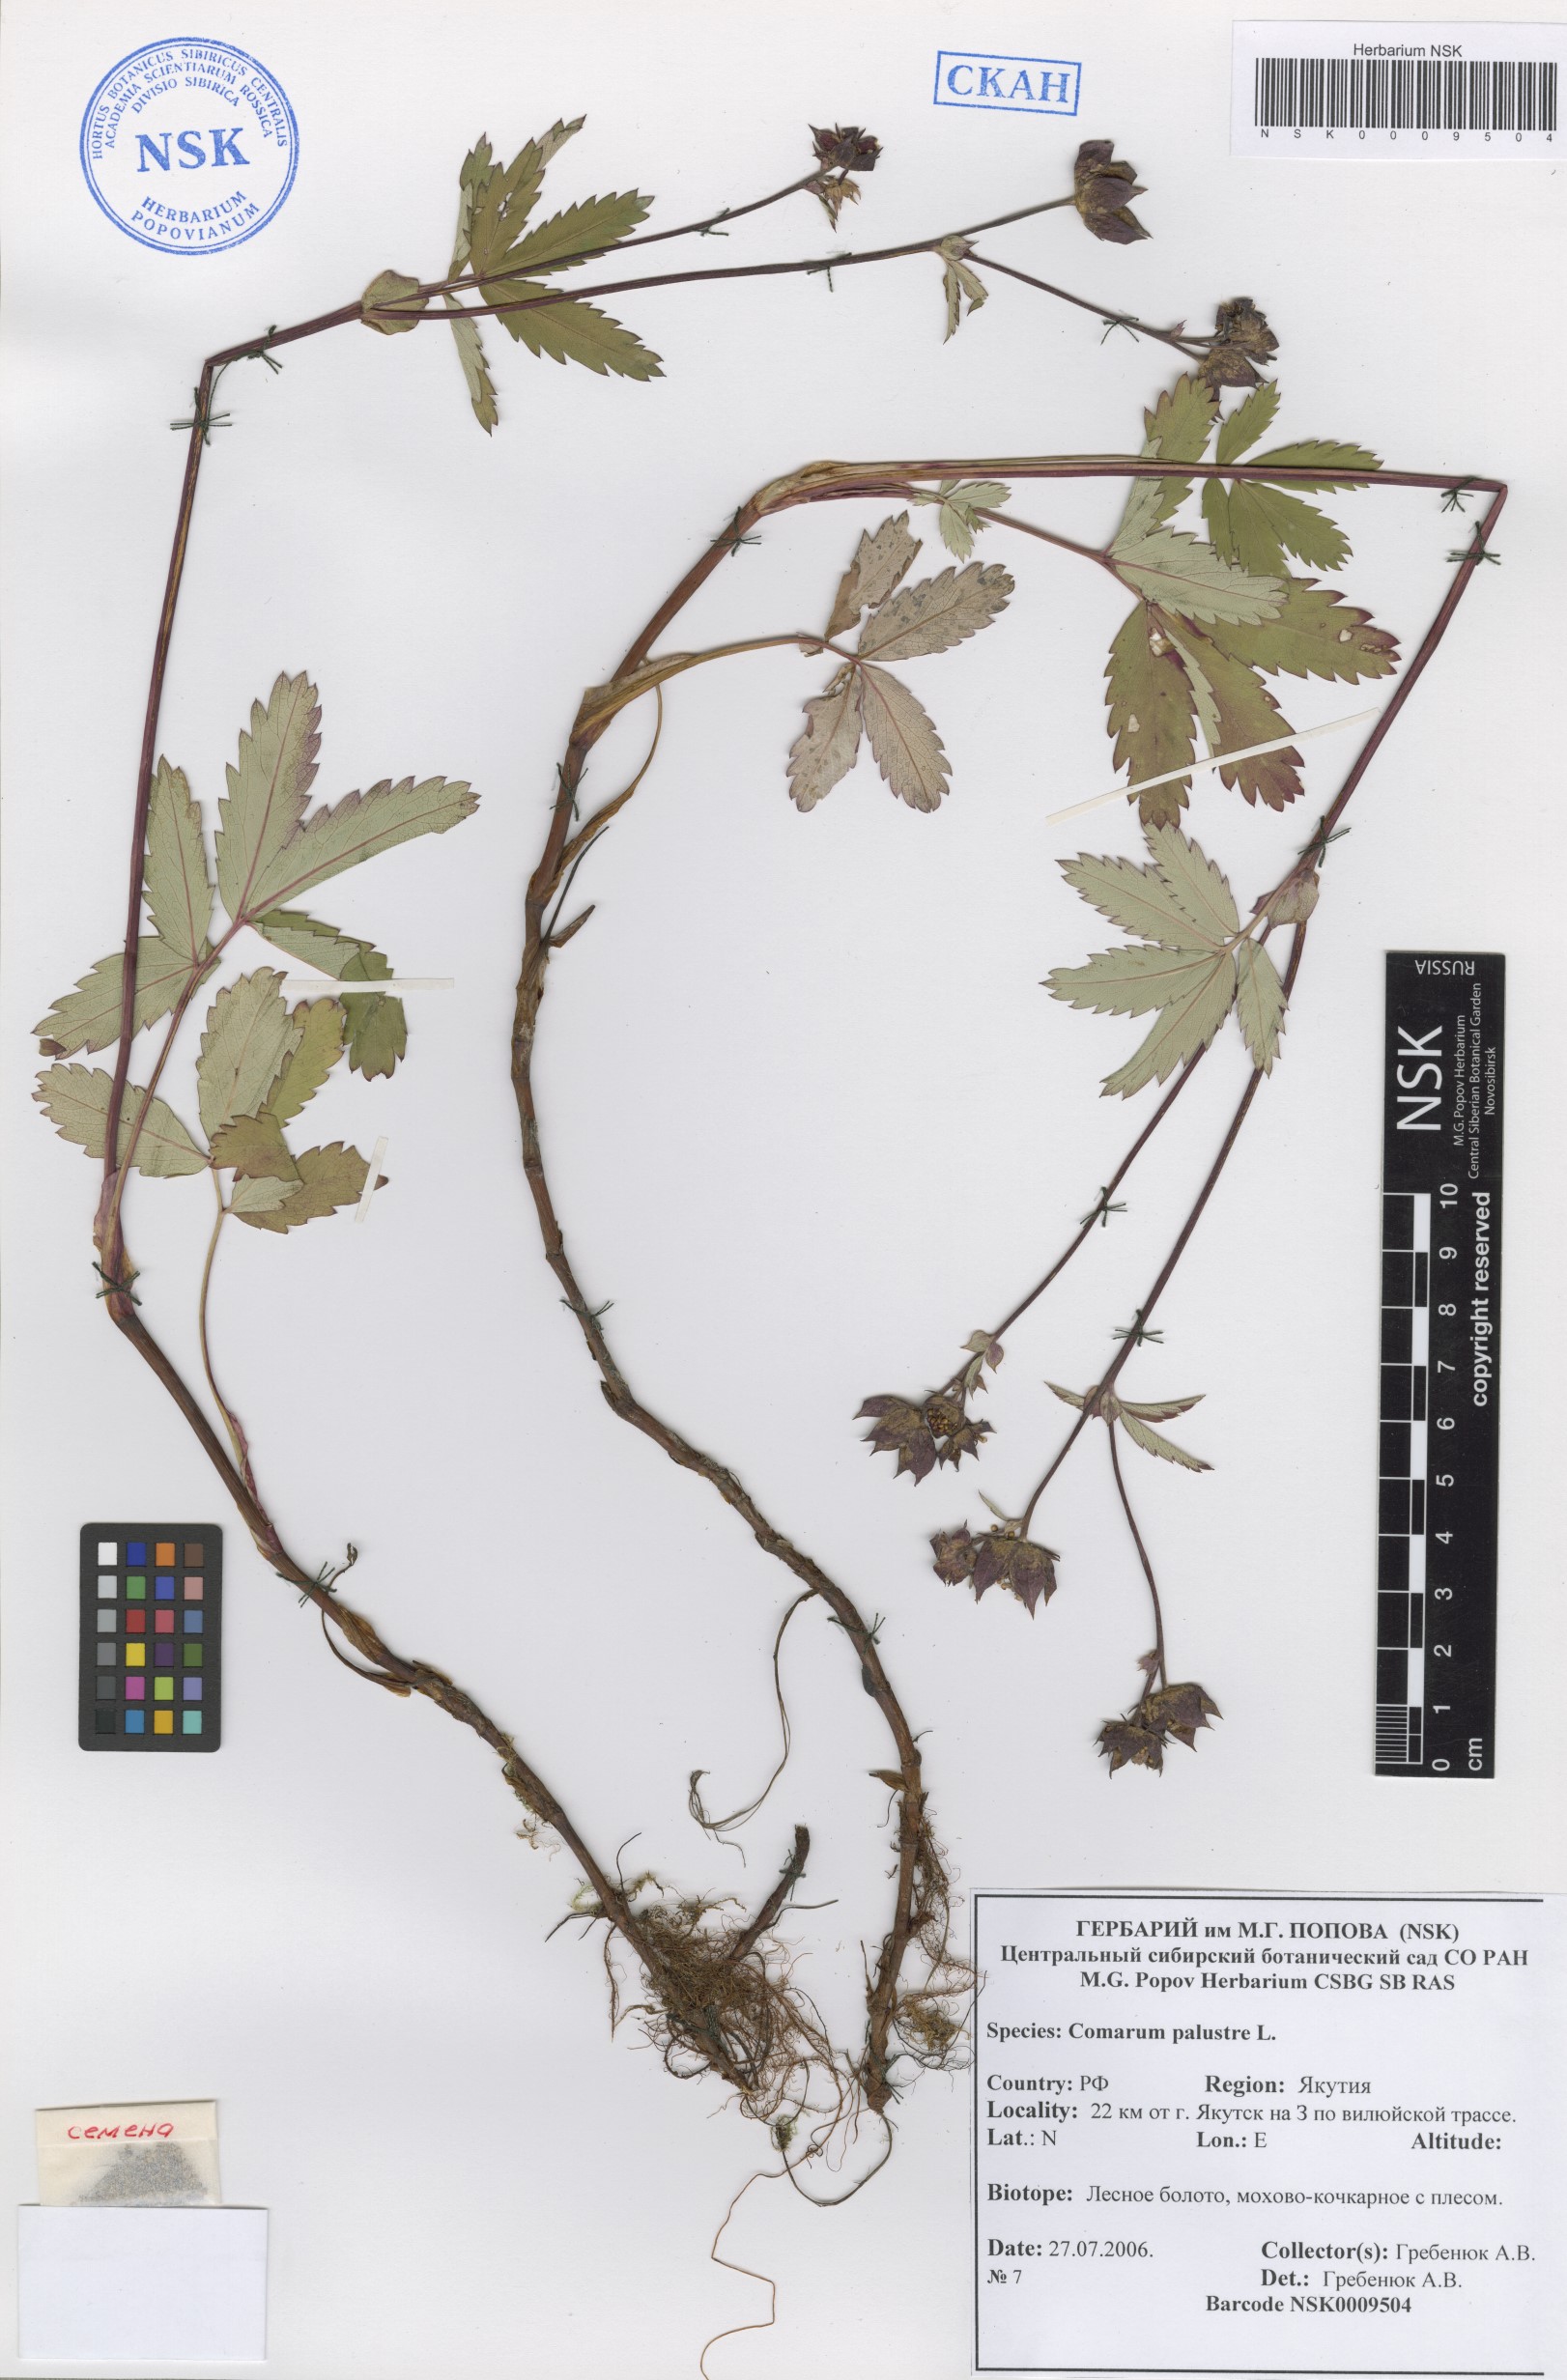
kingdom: Plantae
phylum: Tracheophyta
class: Magnoliopsida
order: Rosales
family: Rosaceae
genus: Comarum
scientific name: Comarum palustre
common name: Marsh cinquefoil
